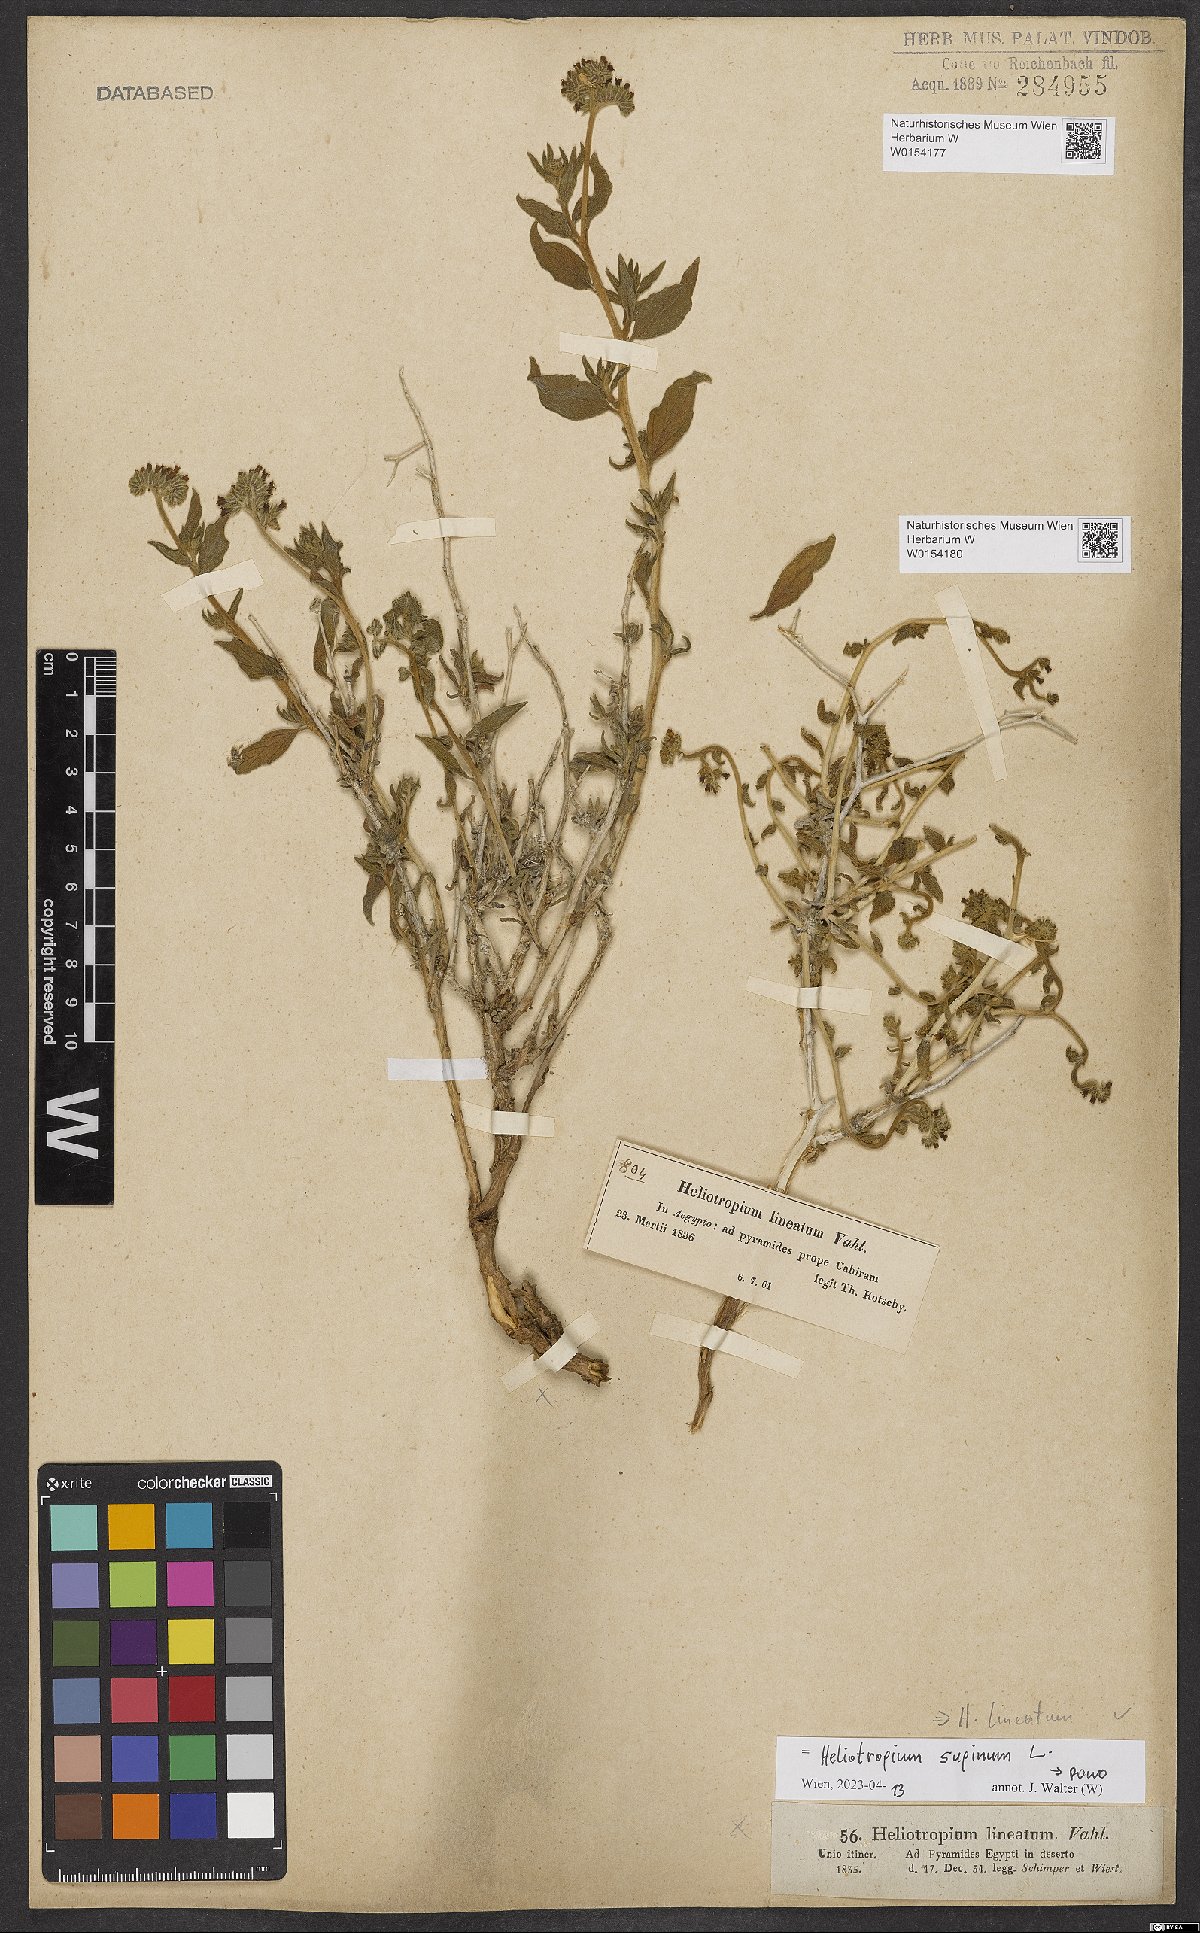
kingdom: Plantae
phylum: Tracheophyta
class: Magnoliopsida
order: Boraginales
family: Heliotropiaceae
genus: Heliotropium
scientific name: Heliotropium supinum
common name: Dwarf heliotrope
